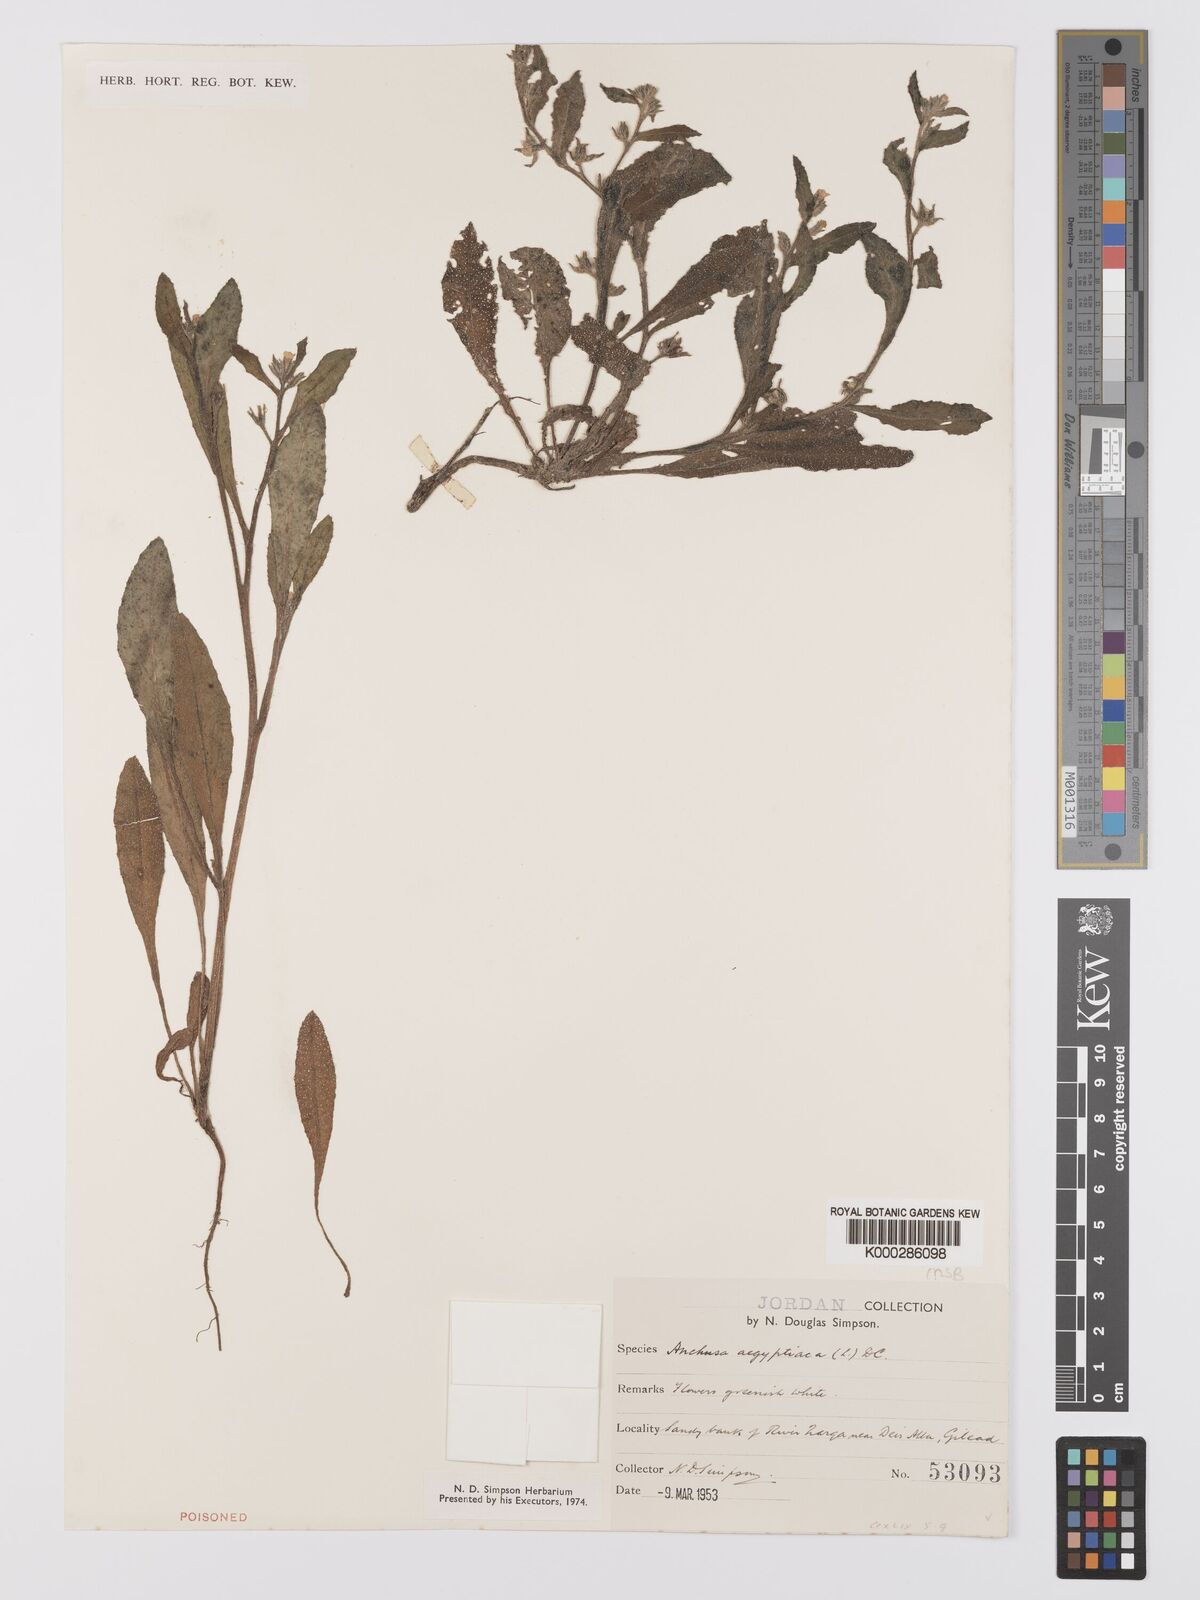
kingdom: Plantae
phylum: Tracheophyta
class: Magnoliopsida
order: Boraginales
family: Boraginaceae
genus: Lycopsis
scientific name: Lycopsis aegyptiaca
